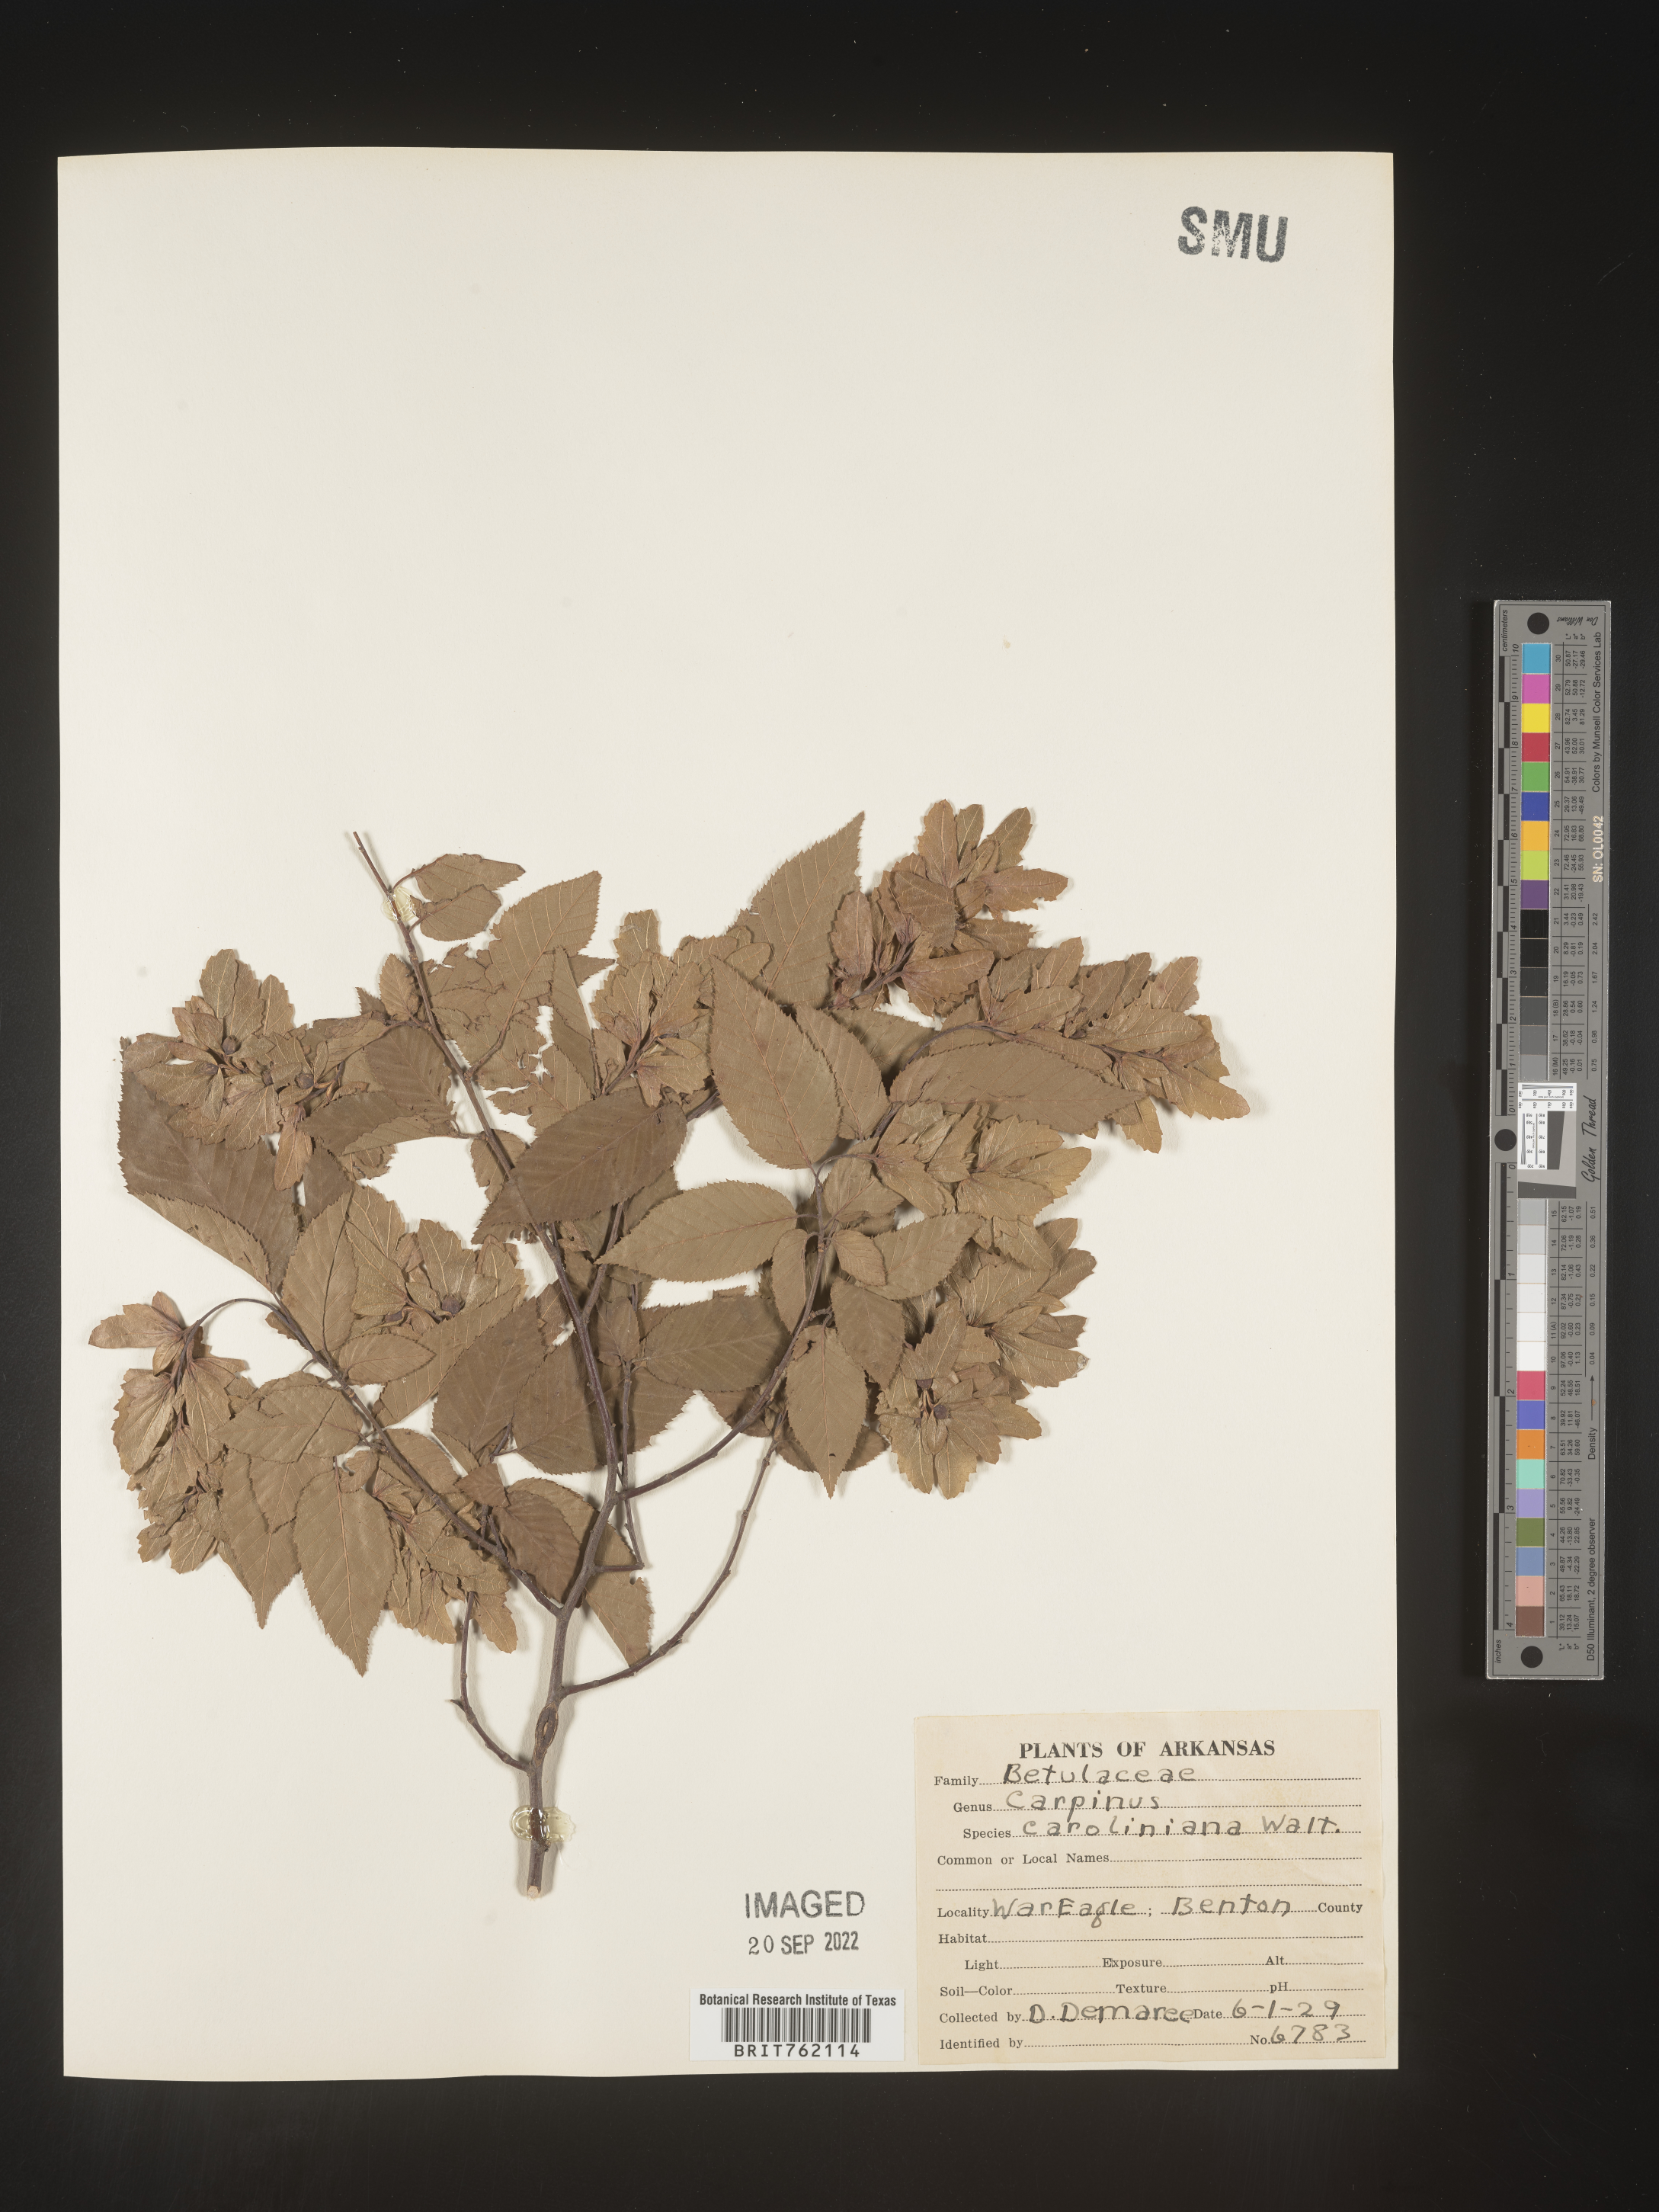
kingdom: Plantae
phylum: Tracheophyta
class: Magnoliopsida
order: Fagales
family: Betulaceae
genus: Carpinus
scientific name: Carpinus caroliniana
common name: American hornbeam
